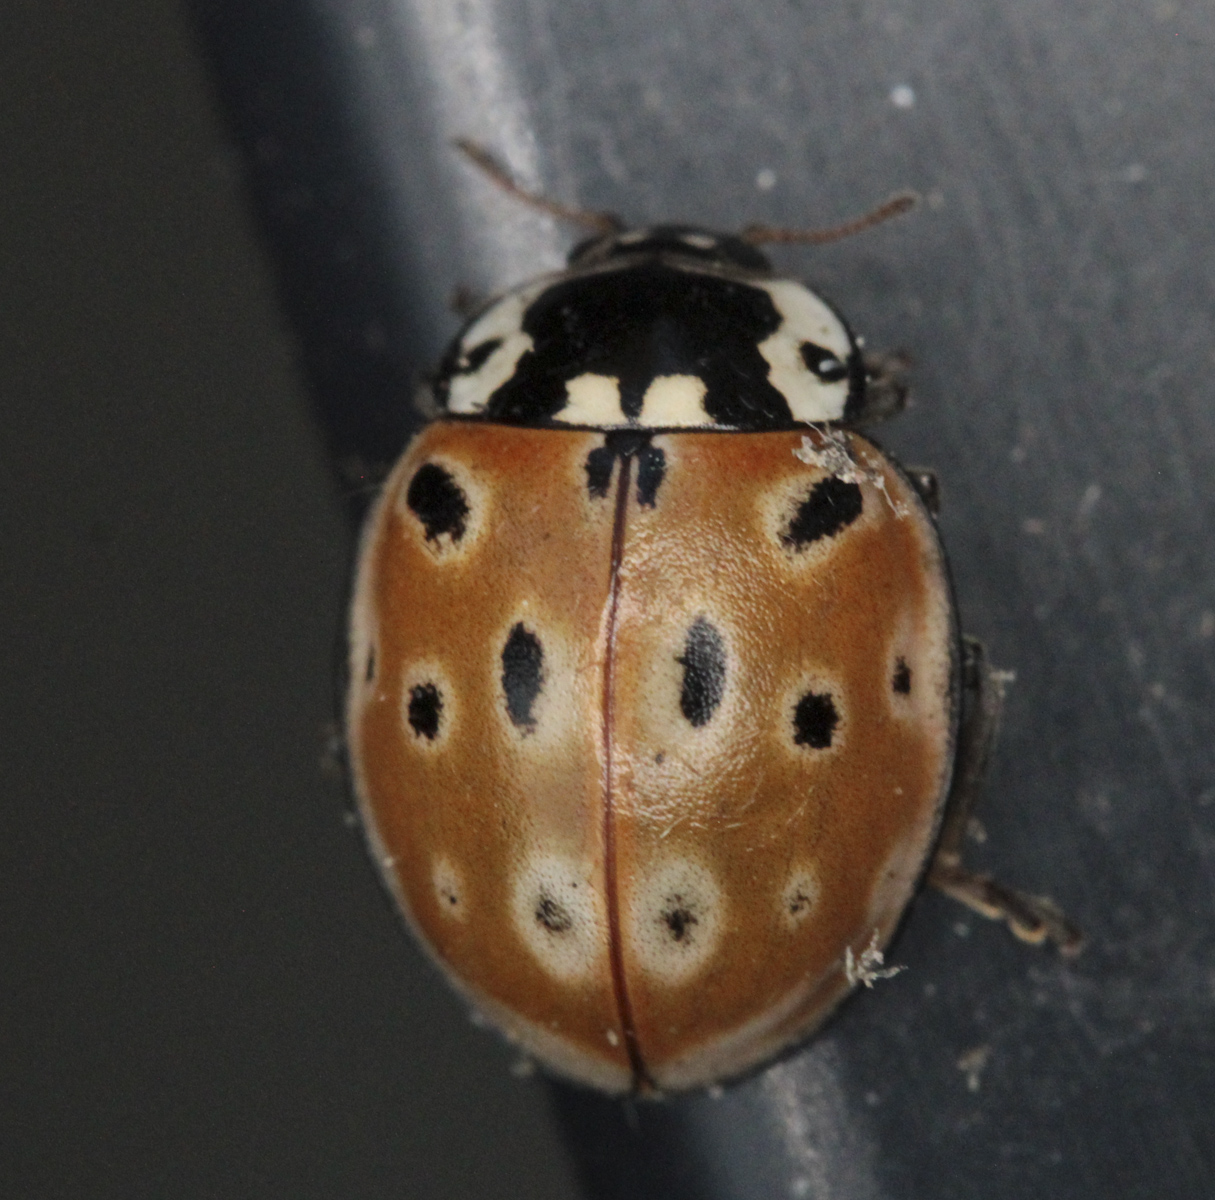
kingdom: Animalia
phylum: Arthropoda
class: Insecta
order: Coleoptera
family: Coccinellidae
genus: Anatis
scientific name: Anatis ocellata
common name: Eyed ladybird
